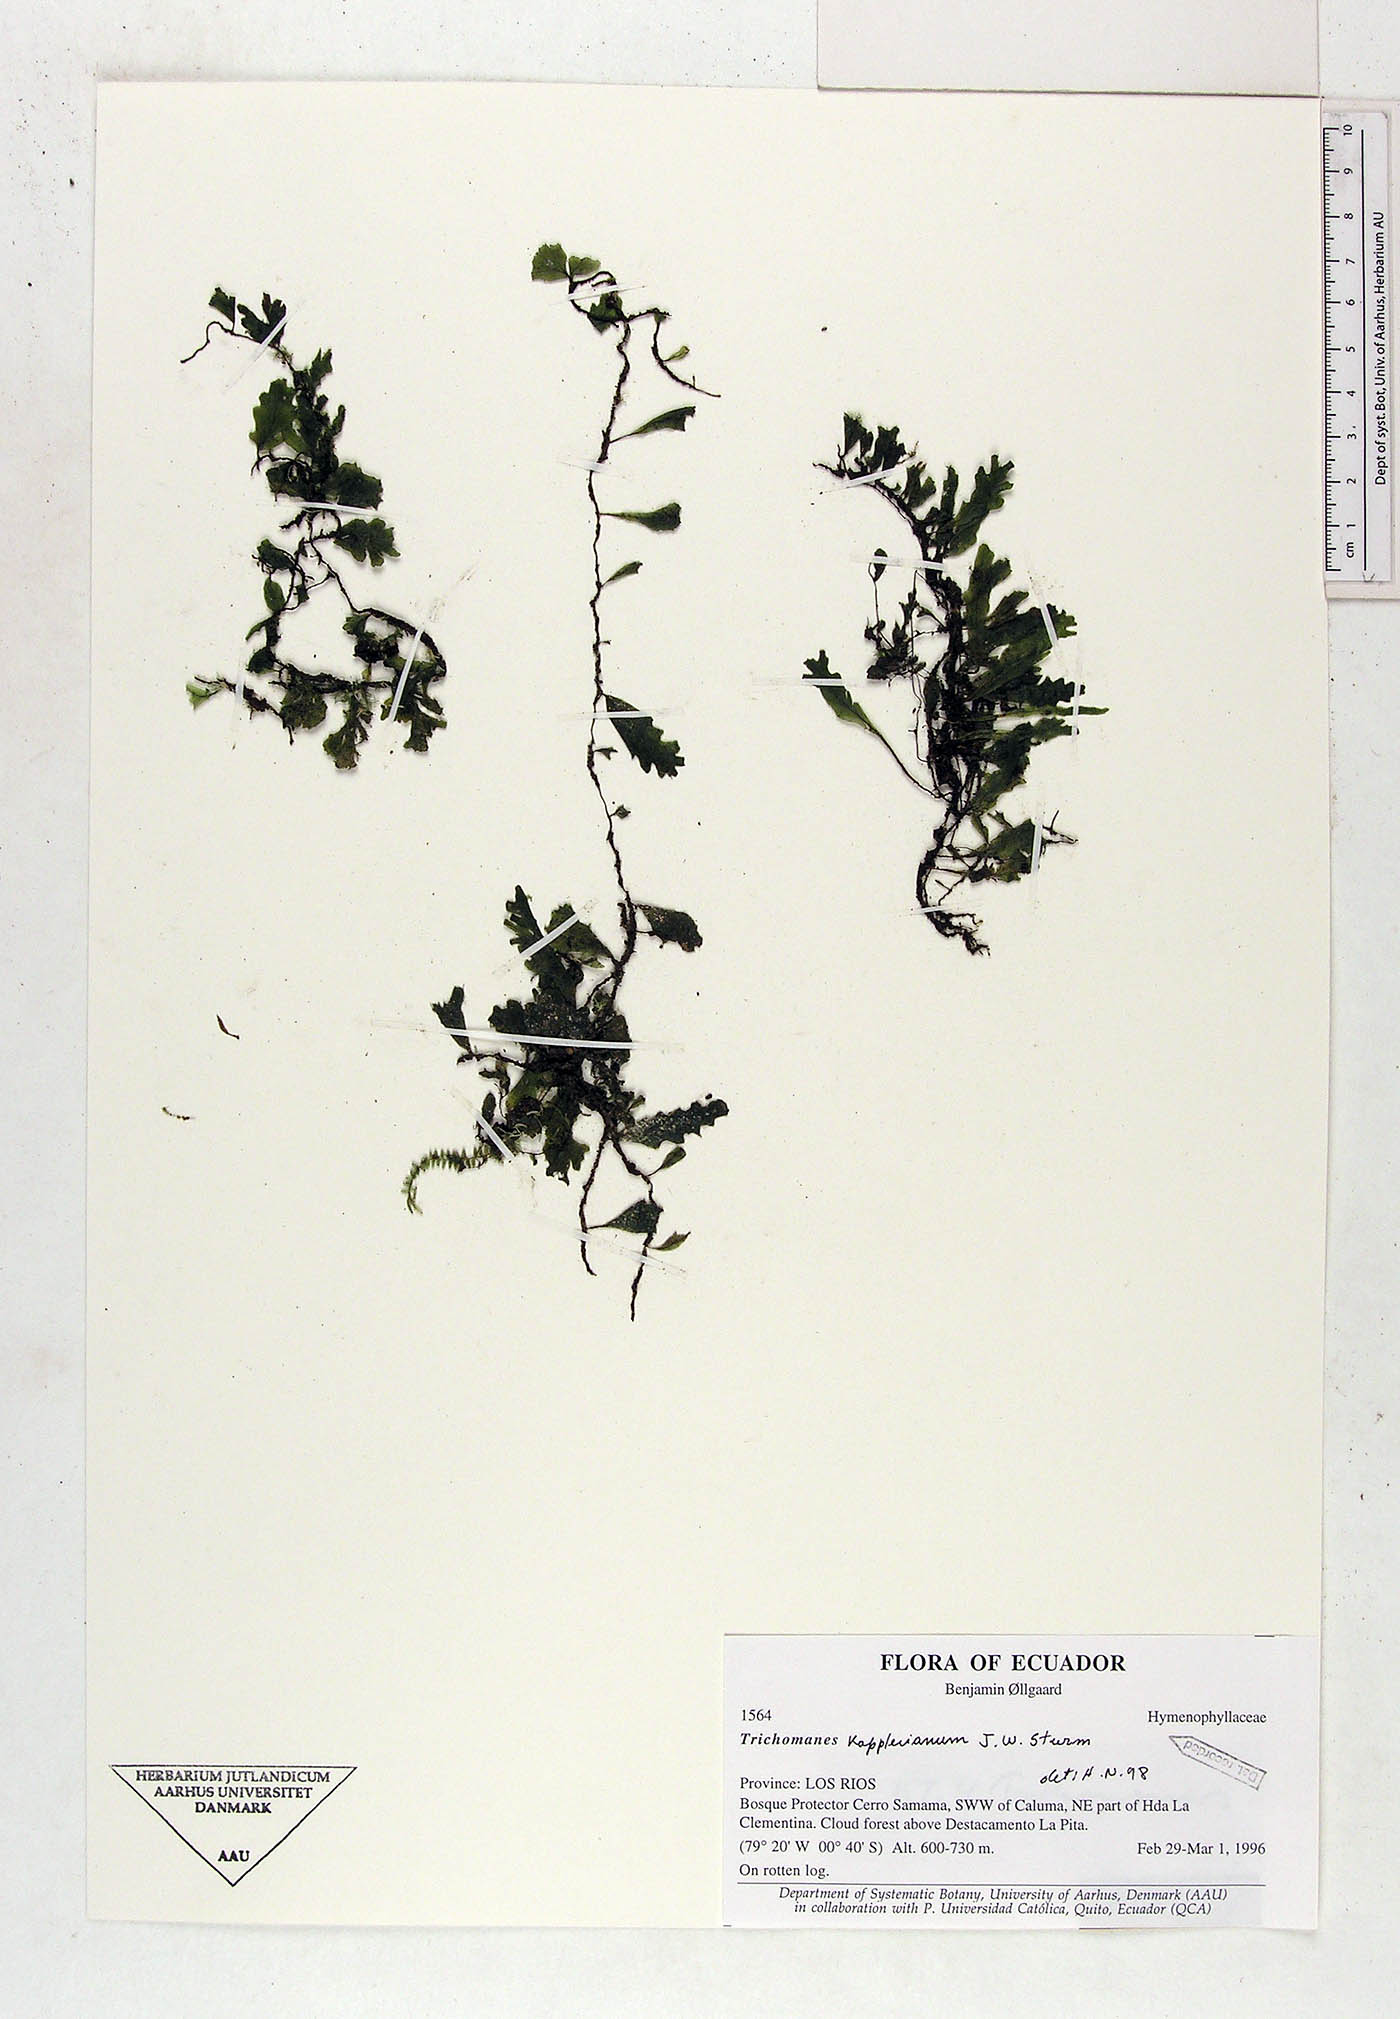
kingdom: Plantae
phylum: Tracheophyta
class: Polypodiopsida
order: Hymenophyllales
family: Hymenophyllaceae
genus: Didymoglossum
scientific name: Didymoglossum kapplerianum
